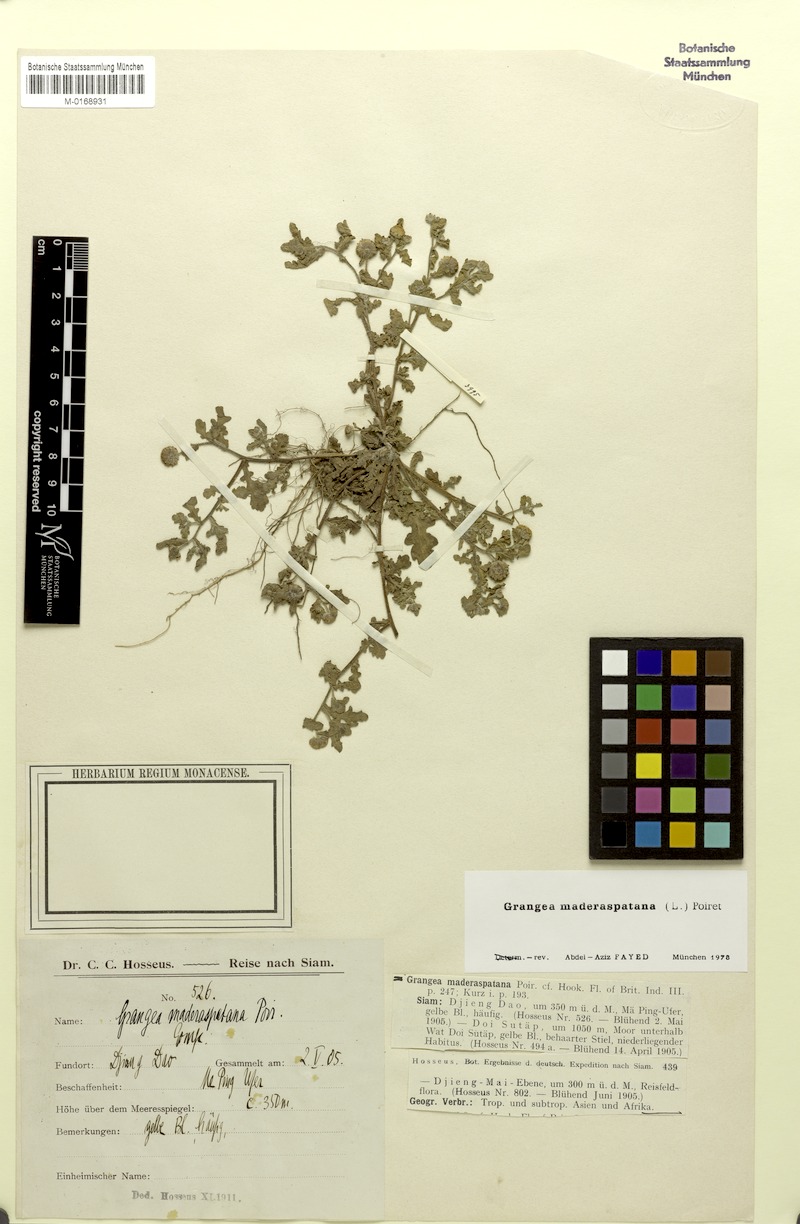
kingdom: Plantae
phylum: Tracheophyta
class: Magnoliopsida
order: Asterales
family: Asteraceae
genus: Grangea
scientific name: Grangea maderaspatana
